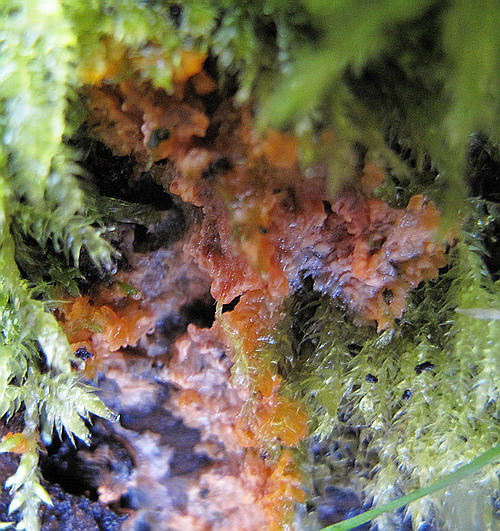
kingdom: Fungi
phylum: Basidiomycota
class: Agaricomycetes
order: Polyporales
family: Meruliaceae
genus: Phlebia
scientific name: Phlebia radiata
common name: stråle-åresvamp
